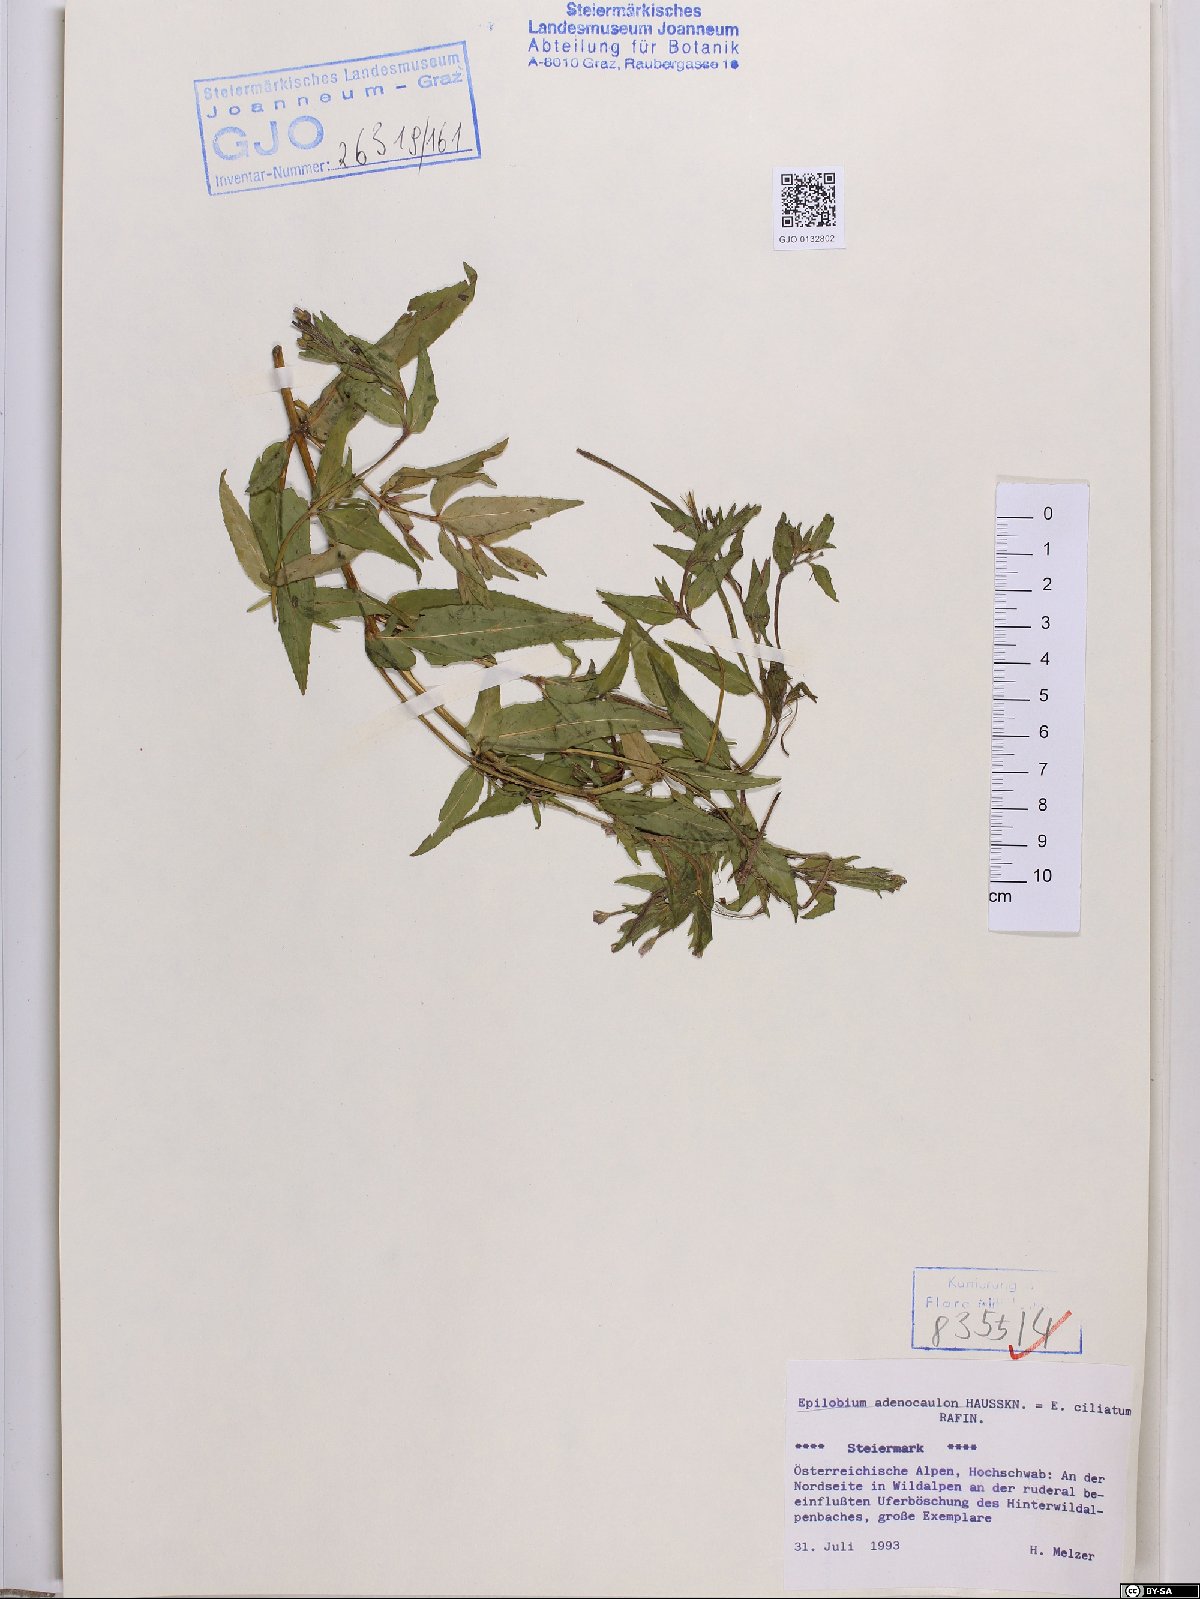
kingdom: Plantae
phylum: Tracheophyta
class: Magnoliopsida
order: Myrtales
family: Onagraceae
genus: Epilobium
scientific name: Epilobium ciliatum
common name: American willowherb
